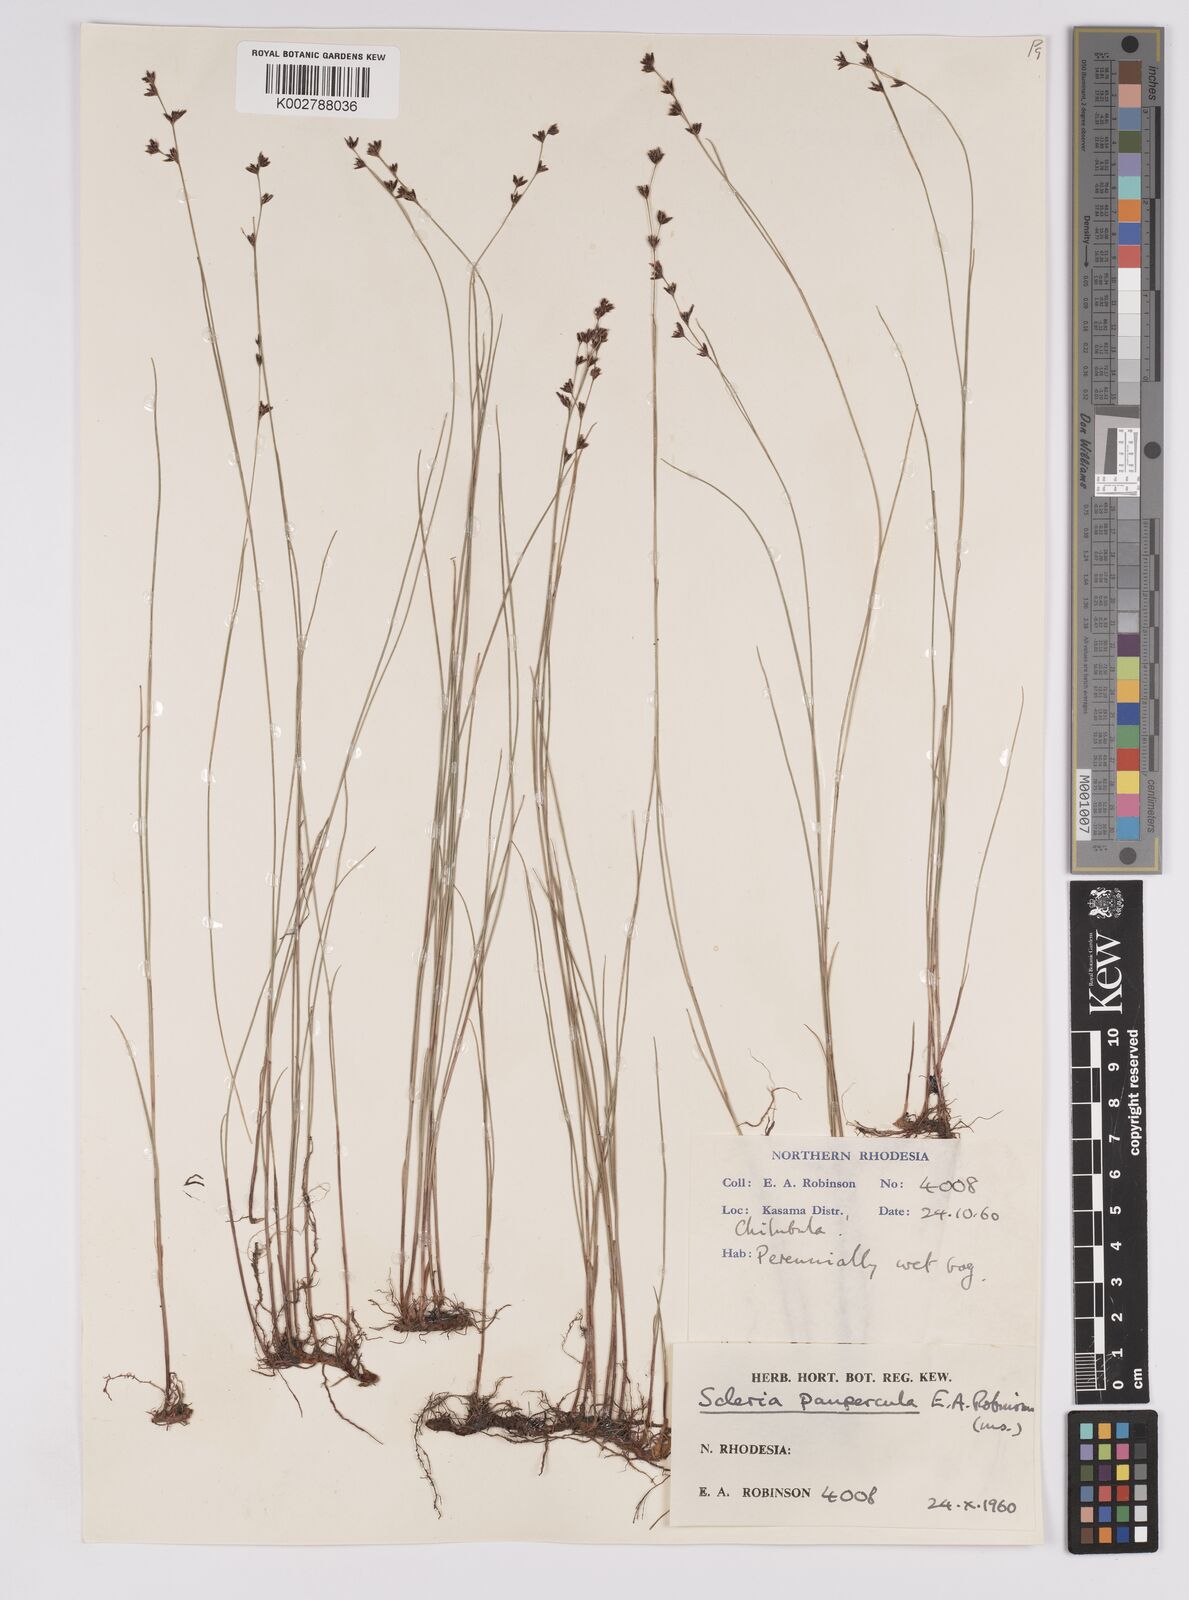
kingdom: Plantae
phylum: Tracheophyta
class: Liliopsida
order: Poales
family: Cyperaceae
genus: Scleria
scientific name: Scleria paupercula
